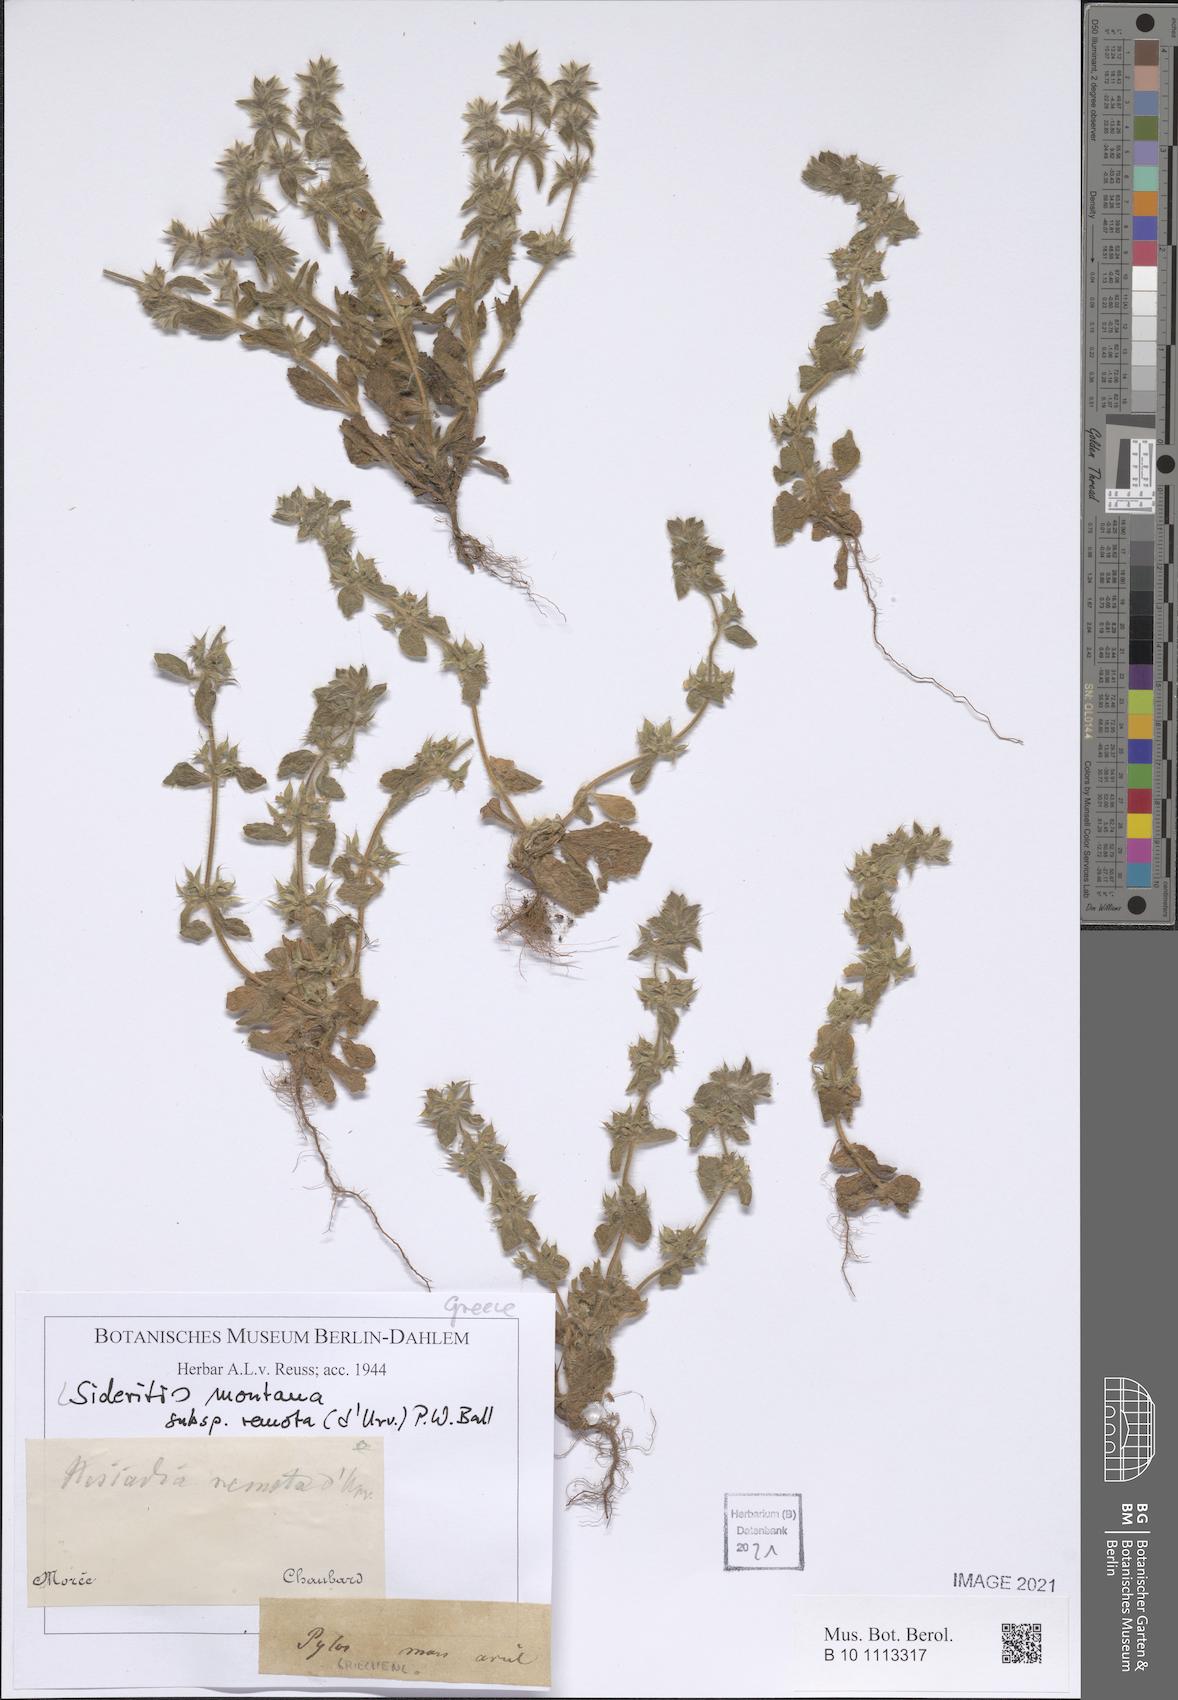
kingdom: Plantae
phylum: Tracheophyta
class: Magnoliopsida
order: Lamiales
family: Lamiaceae
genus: Sideritis
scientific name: Sideritis montana
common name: Mountain ironwort
